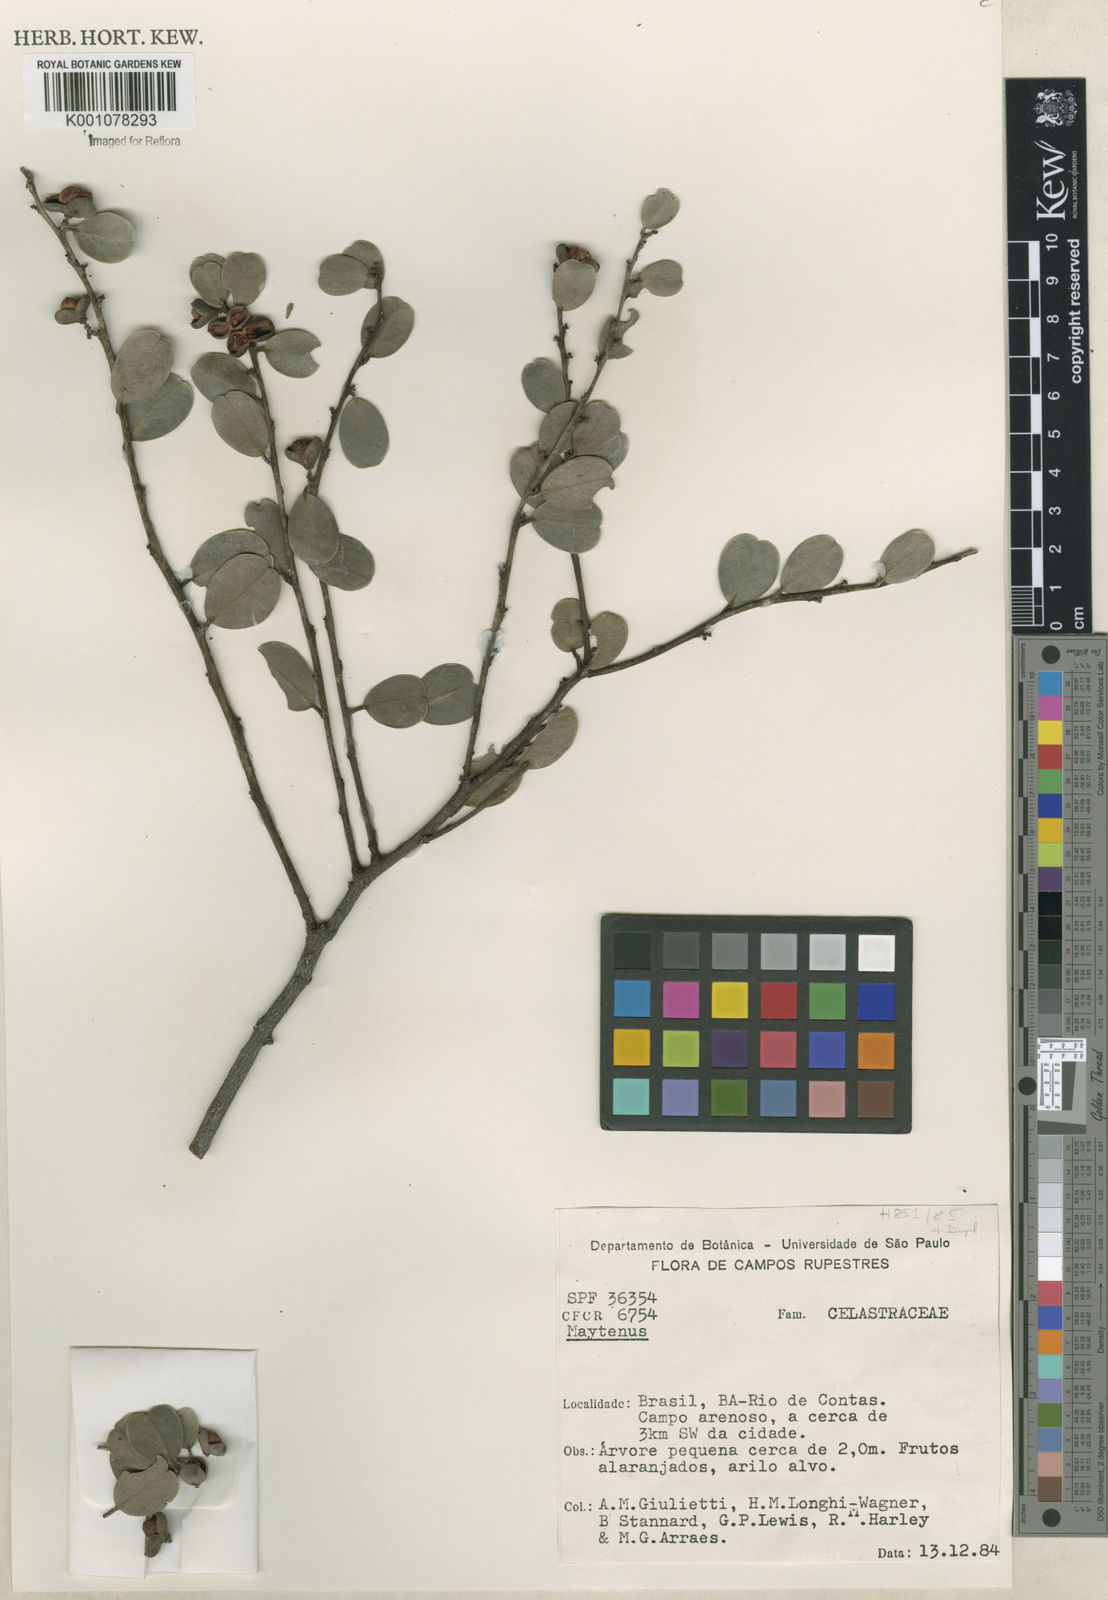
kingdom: Plantae
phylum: Tracheophyta
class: Magnoliopsida
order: Celastrales
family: Celastraceae
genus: Maytenus
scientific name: Maytenus
